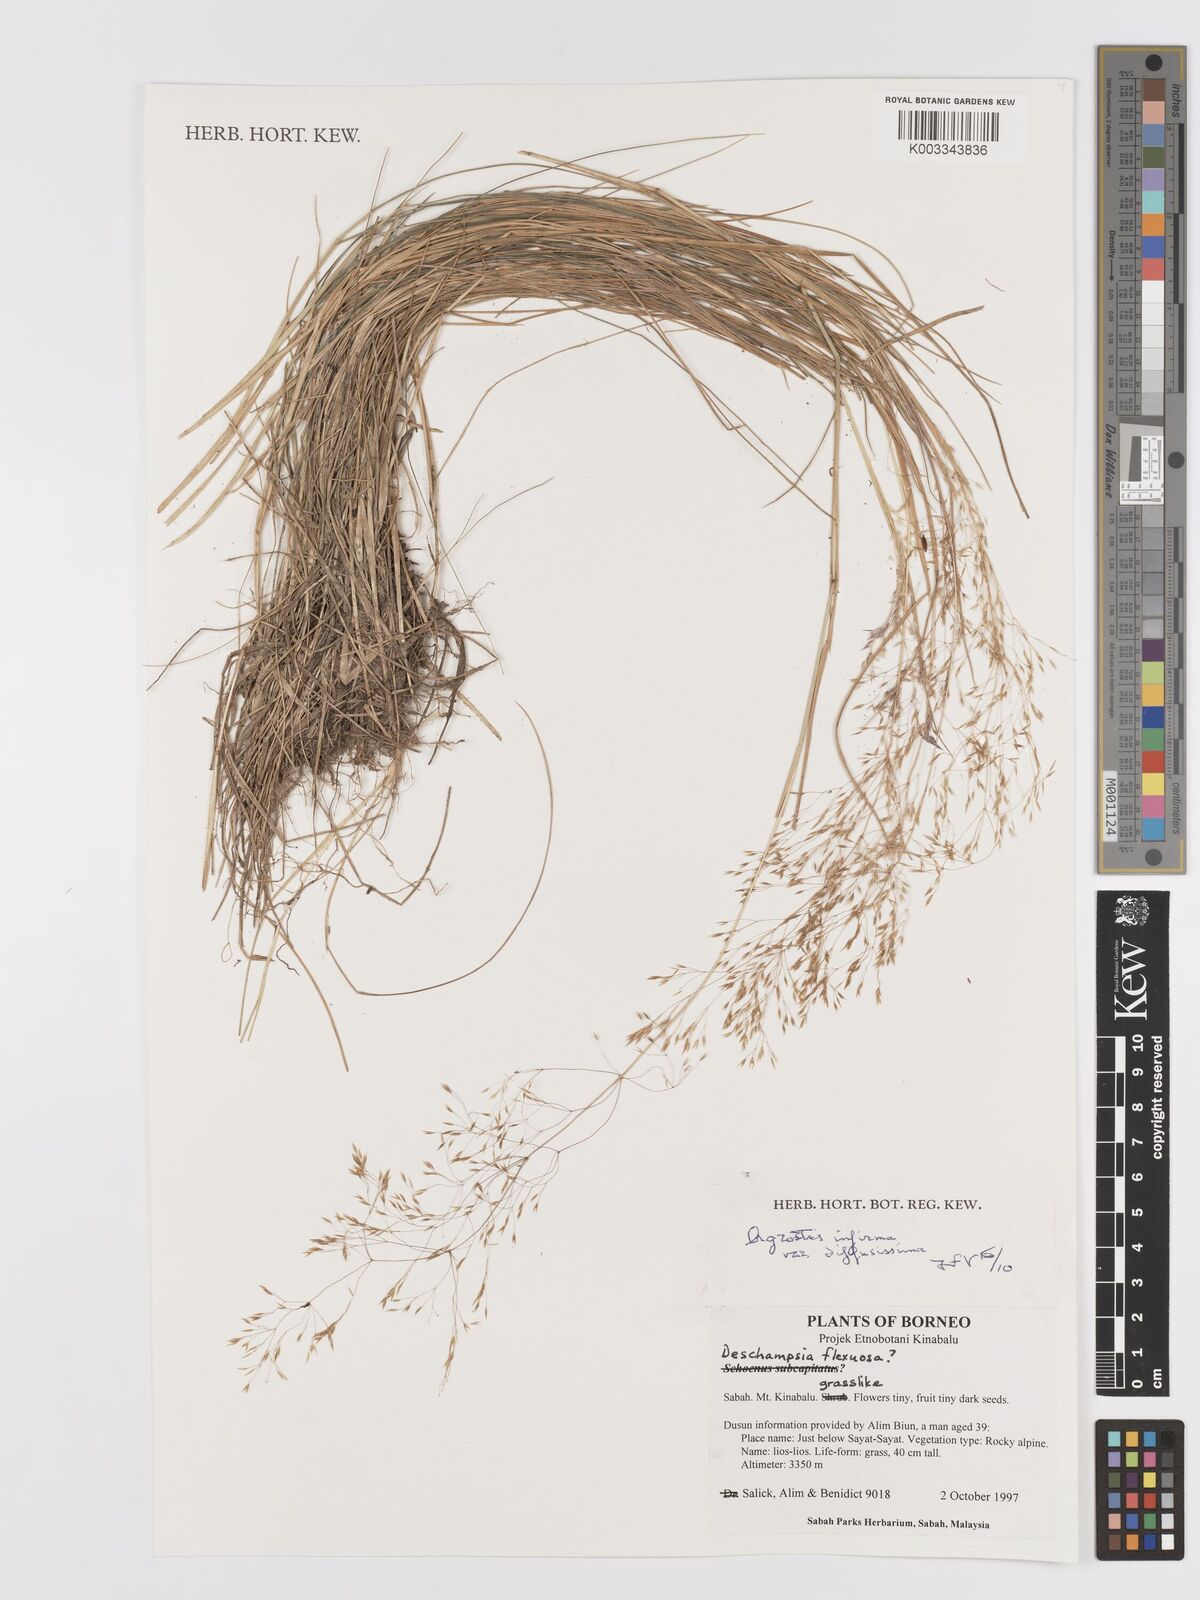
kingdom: Plantae
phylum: Tracheophyta
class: Liliopsida
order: Poales
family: Poaceae
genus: Agrostis
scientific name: Agrostis infirma
